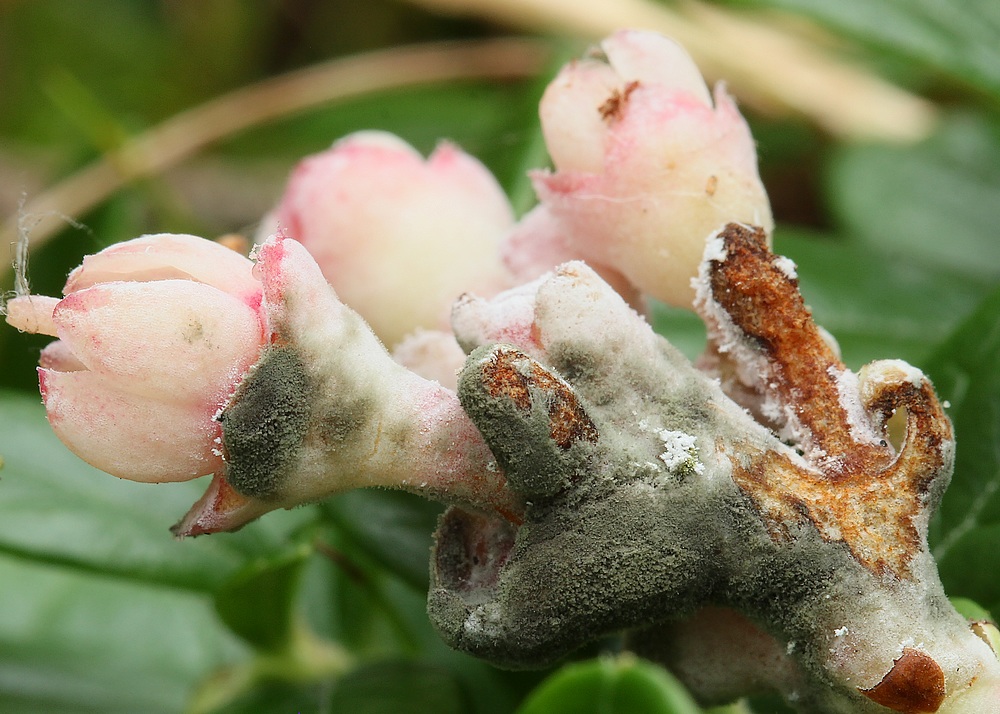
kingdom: Fungi
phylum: Basidiomycota
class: Exobasidiomycetes
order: Exobasidiales
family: Exobasidiaceae
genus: Exobasidium
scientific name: Exobasidium vaccinii
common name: tyttebærblad-bøllesvamp
